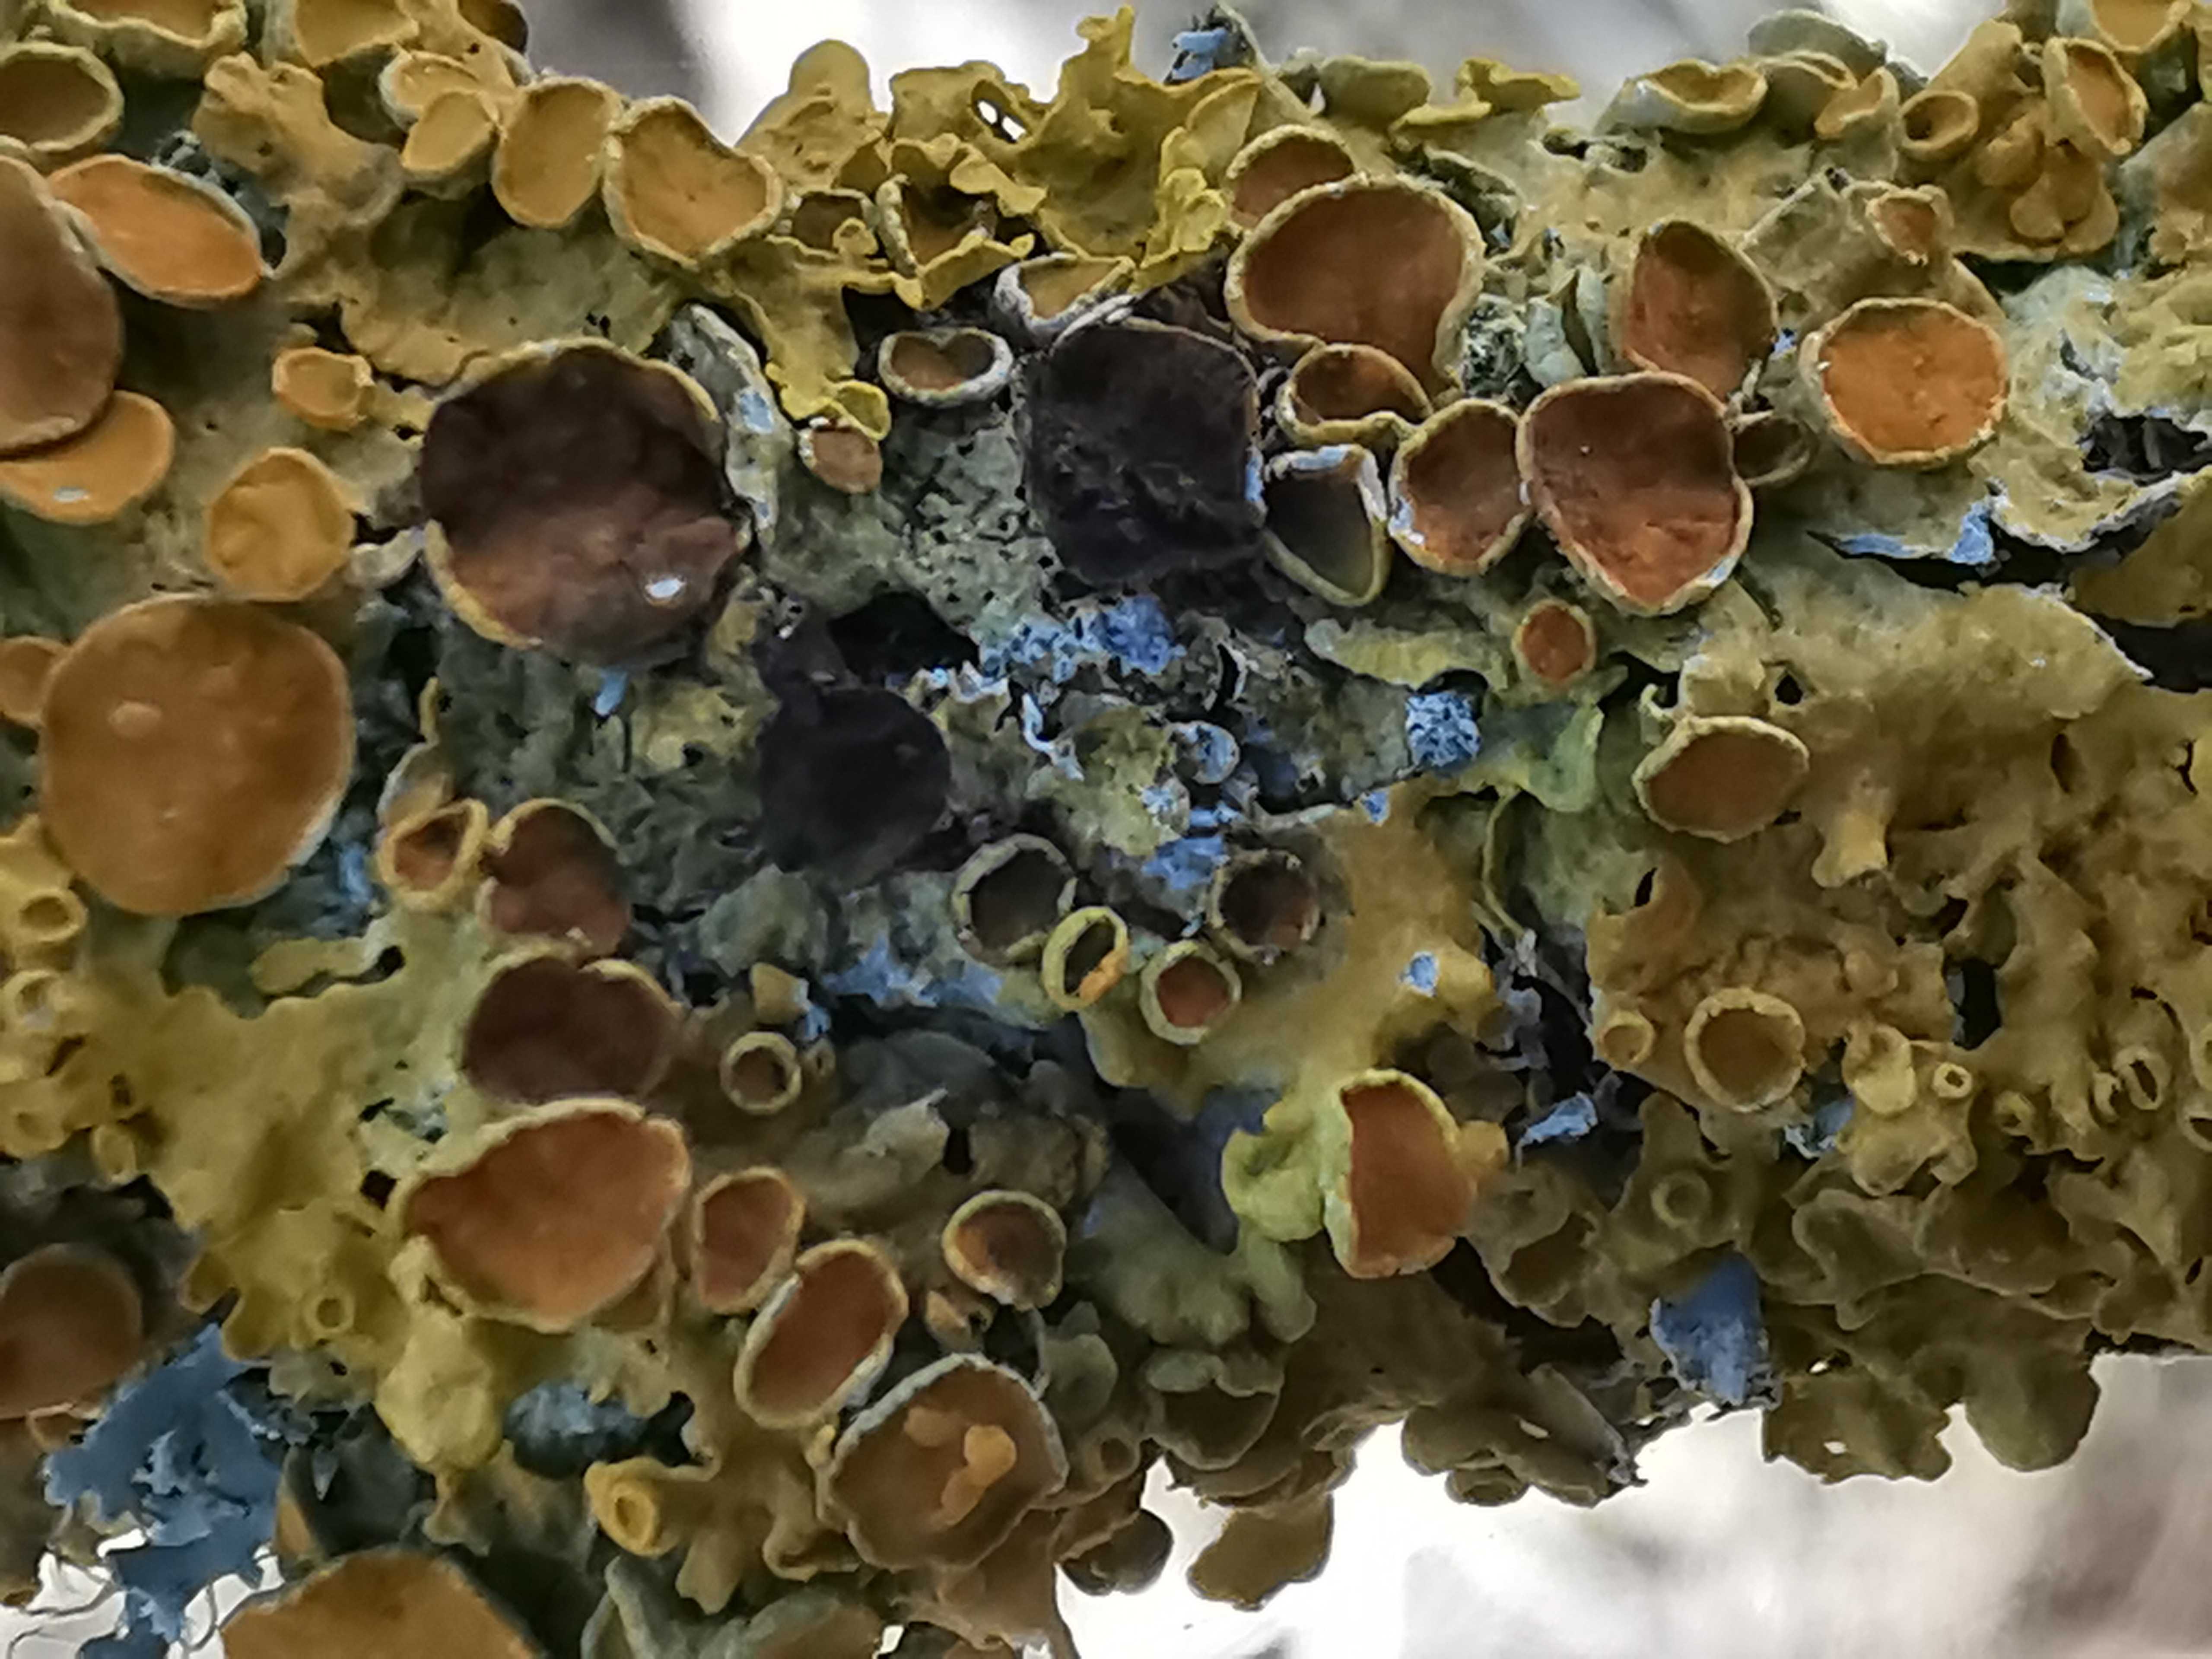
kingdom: Fungi
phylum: Ascomycota
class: Dothideomycetes
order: Mycosphaerellales
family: Teratosphaeriaceae
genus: Xanthoriicola
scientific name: Xanthoriicola physciae
